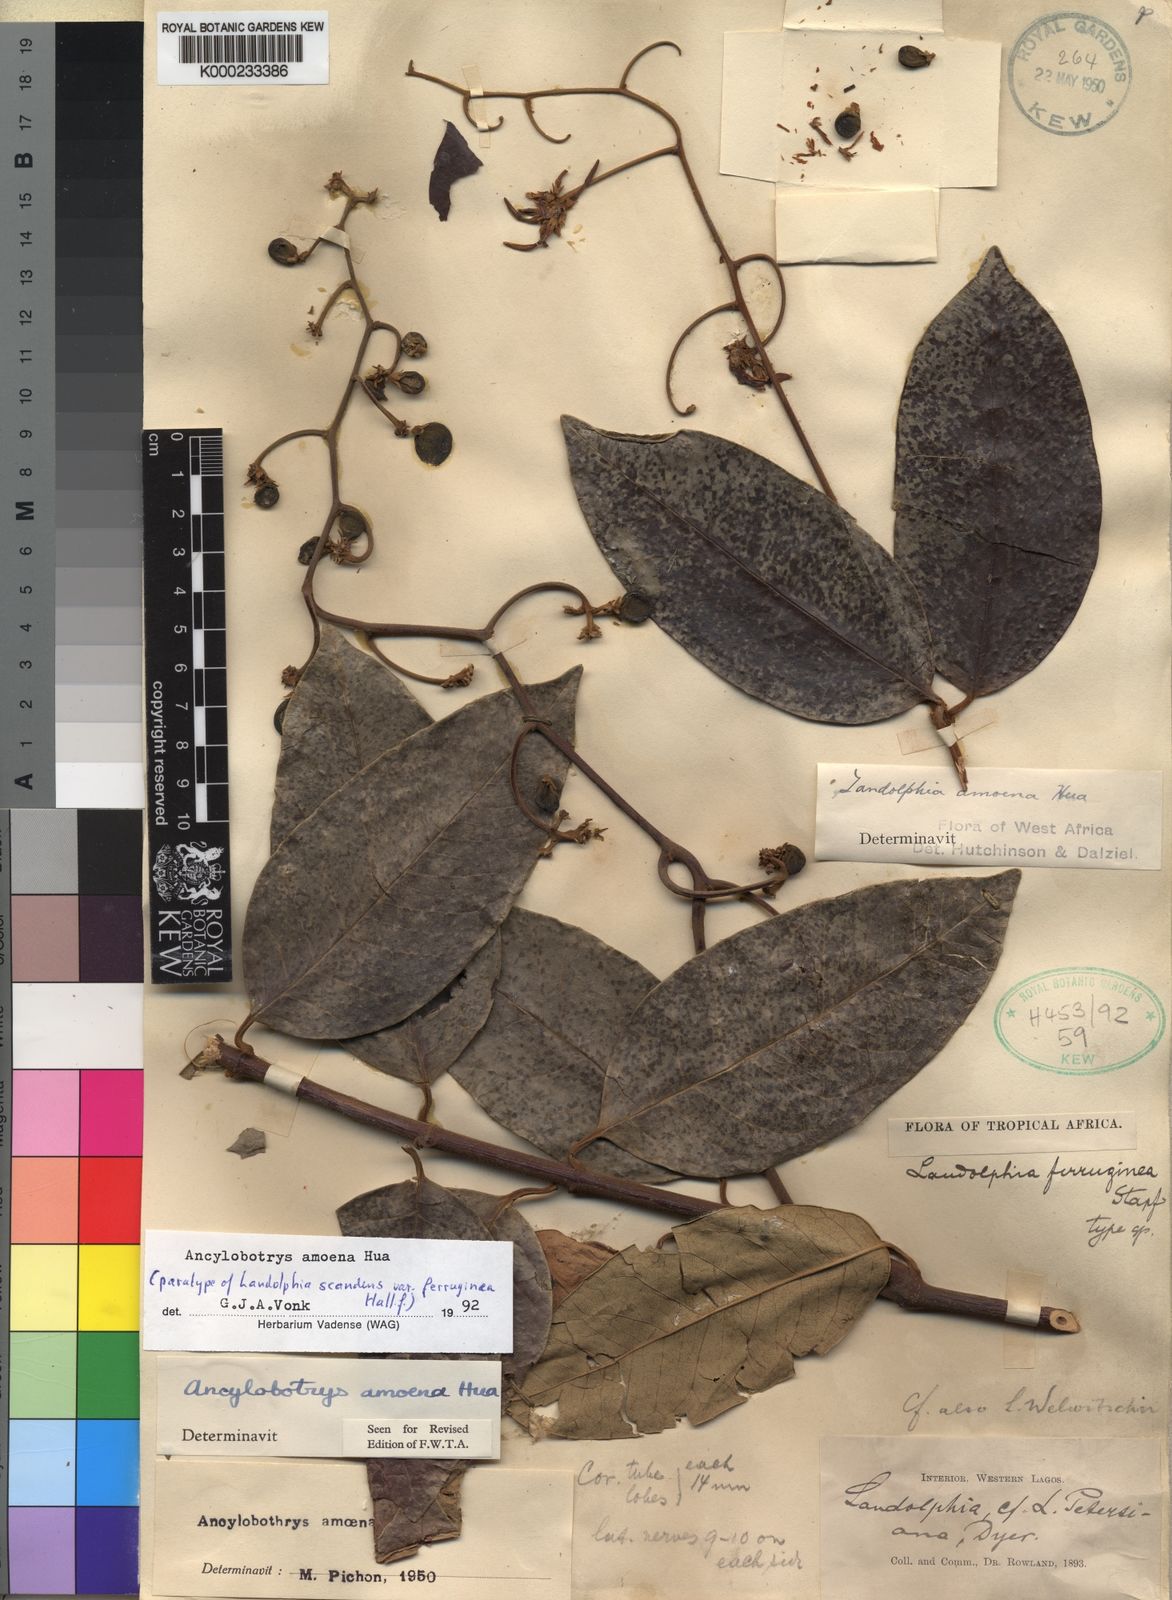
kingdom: Plantae
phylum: Tracheophyta
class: Magnoliopsida
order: Gentianales
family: Apocynaceae
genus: Ancylobothrys
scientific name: Ancylobothrys amoena
